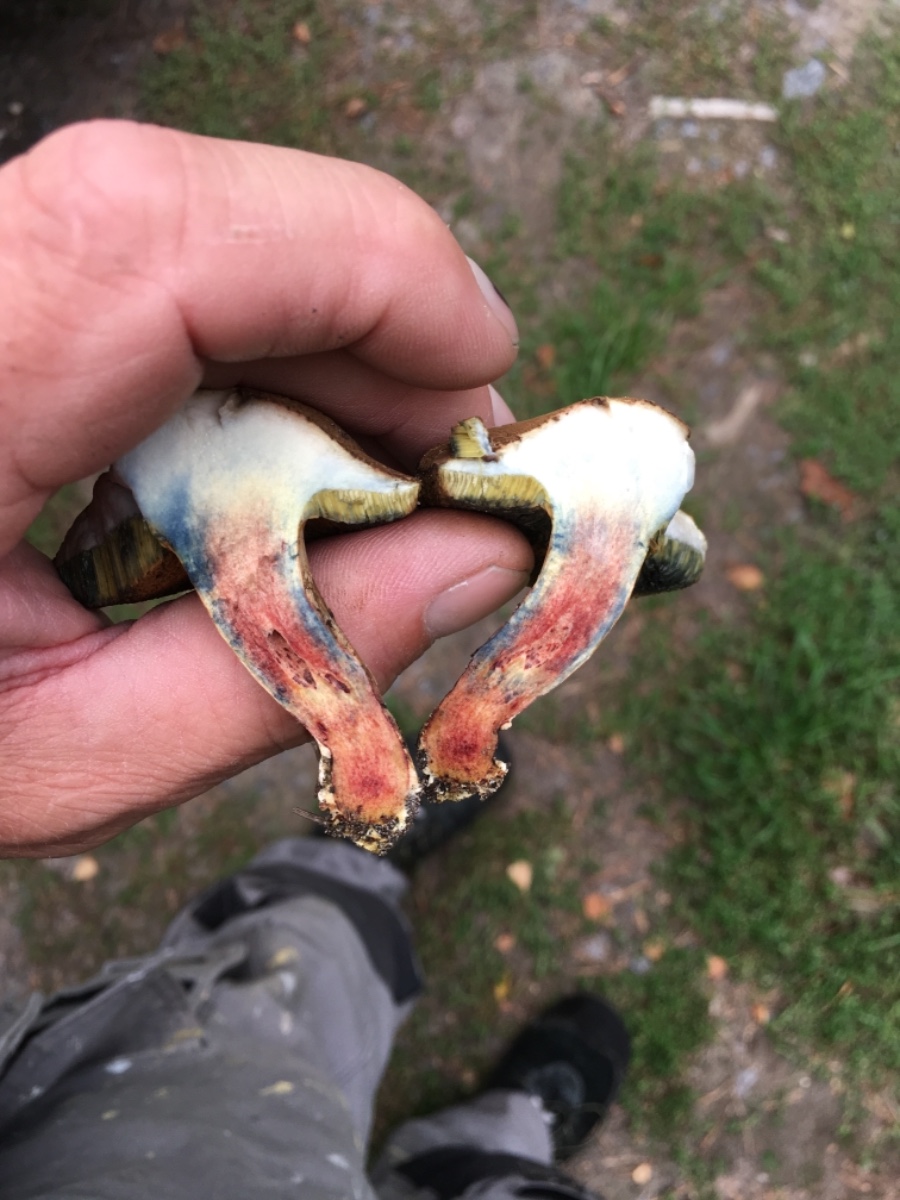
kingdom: Fungi
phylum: Basidiomycota
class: Agaricomycetes
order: Boletales
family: Boletaceae
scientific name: Boletaceae
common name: rørhatfamilien
